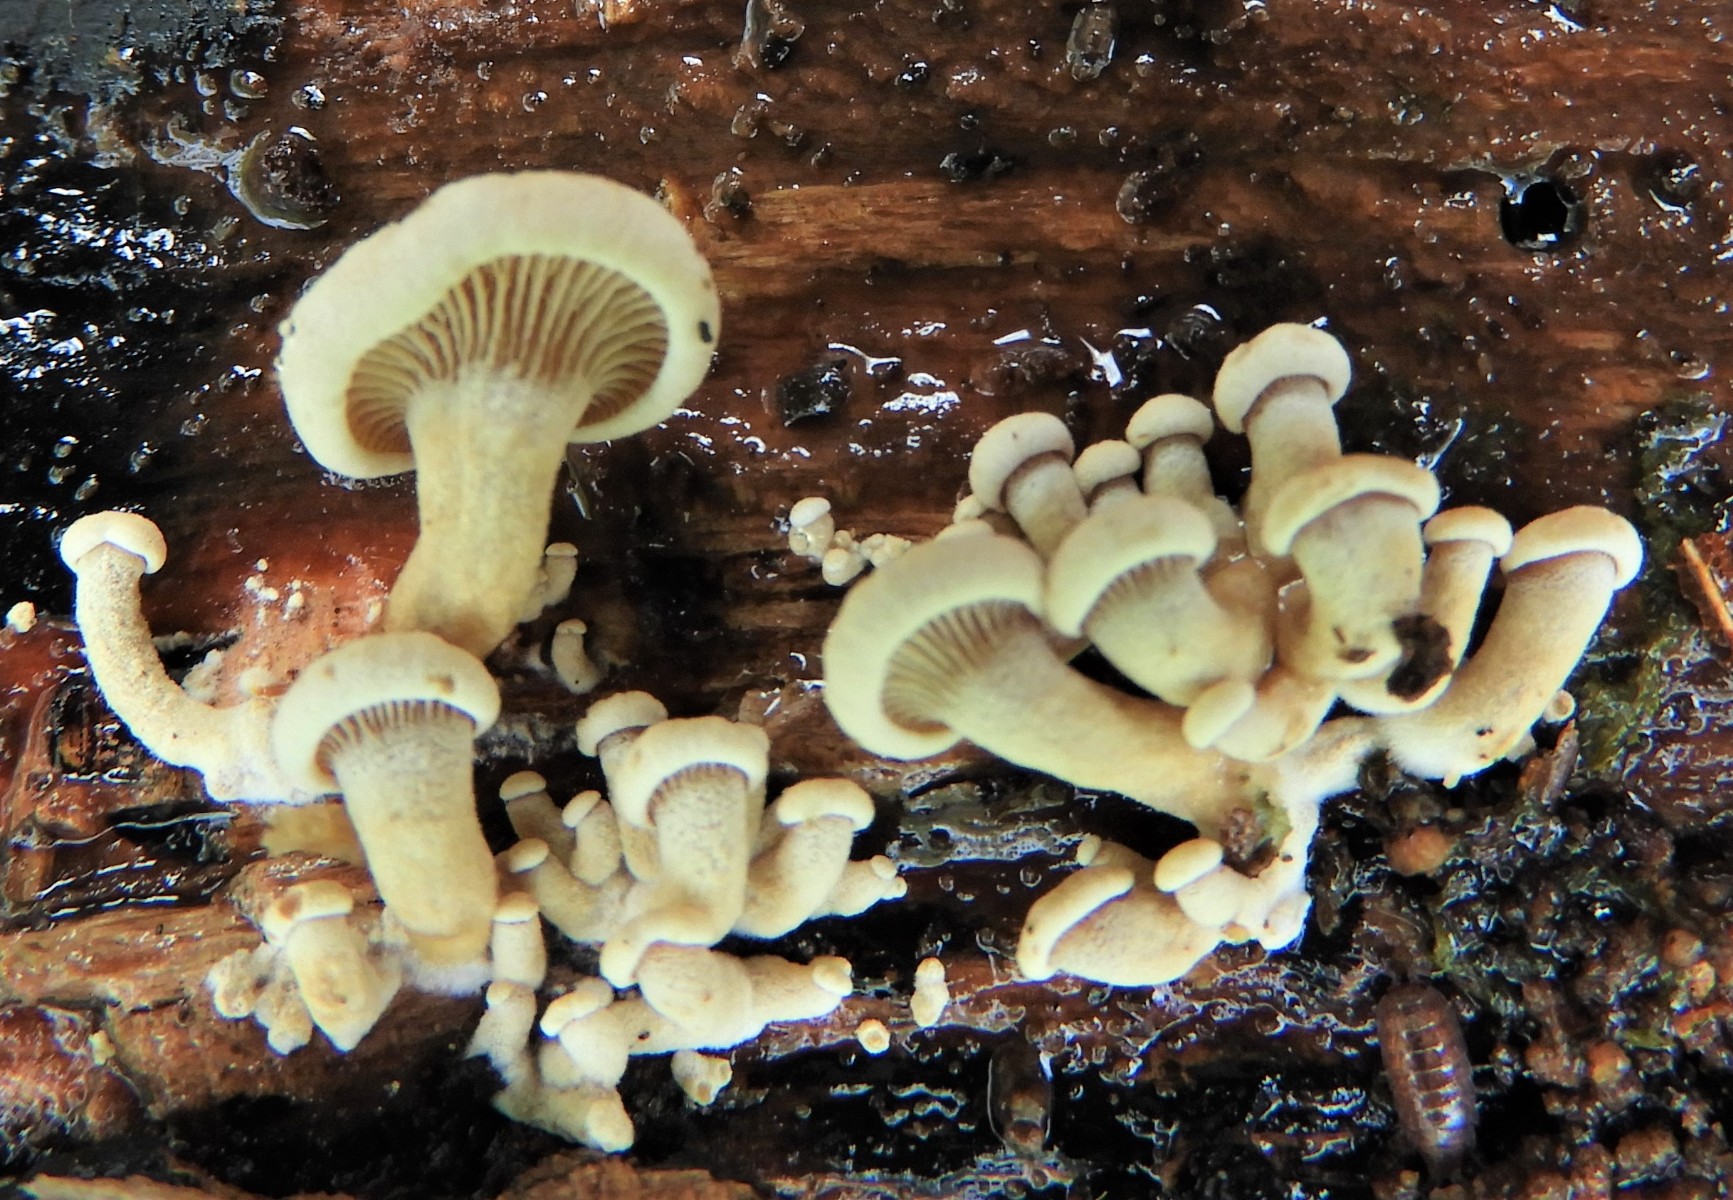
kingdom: Fungi
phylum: Basidiomycota
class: Agaricomycetes
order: Agaricales
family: Mycenaceae
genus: Panellus
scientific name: Panellus stipticus
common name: kliddet epaulethat
